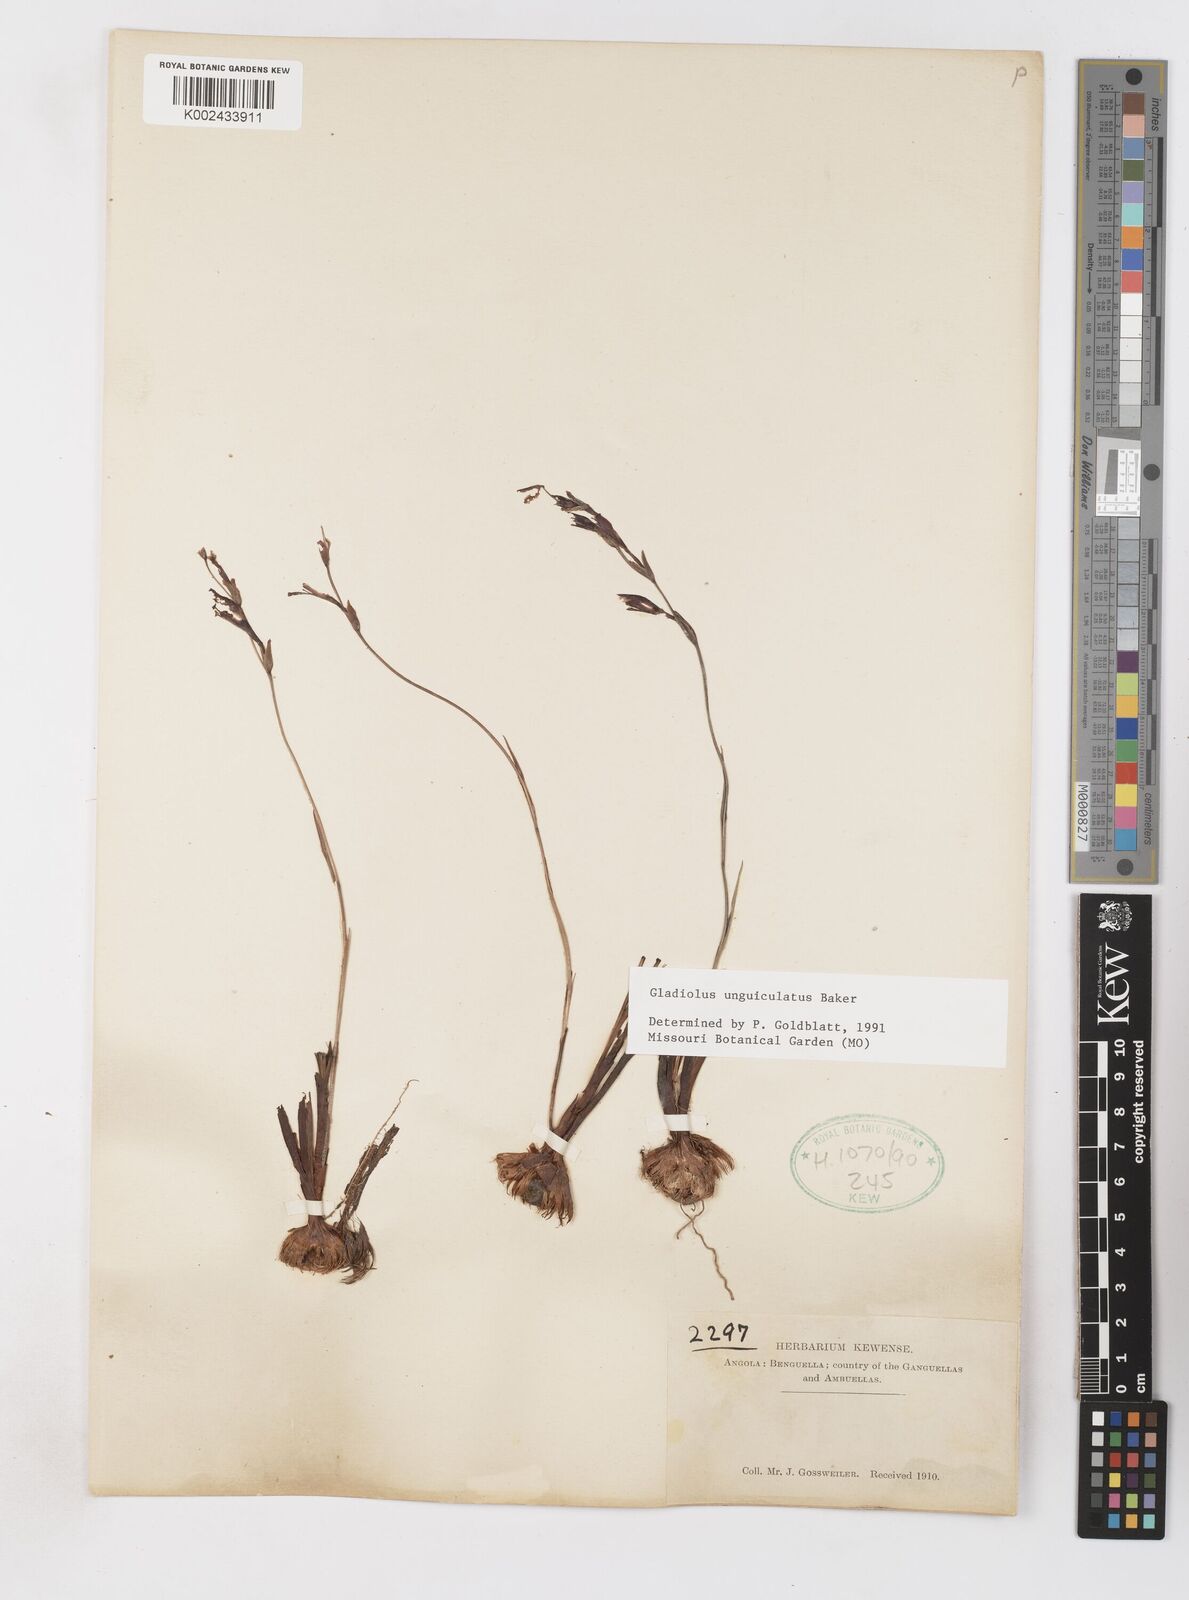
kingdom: Plantae
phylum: Tracheophyta
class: Liliopsida
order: Asparagales
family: Iridaceae
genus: Gladiolus
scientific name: Gladiolus unguiculatus
